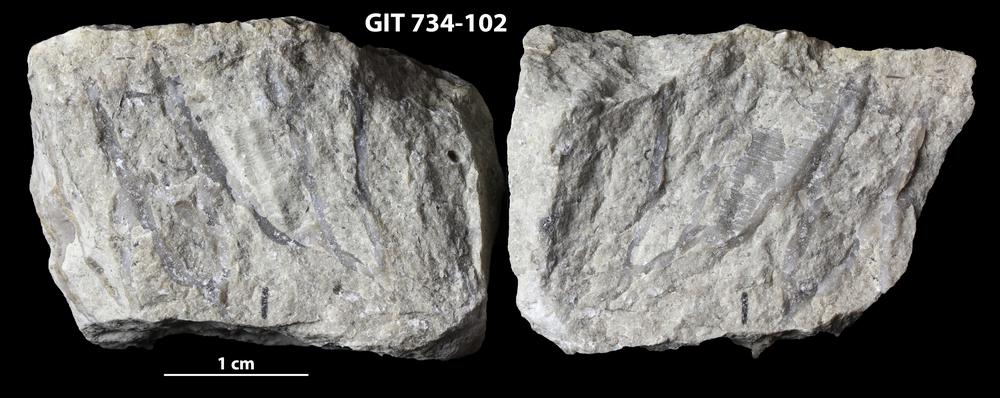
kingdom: Animalia
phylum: Cnidaria
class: Anthozoa
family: Cateniporidae
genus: Catenipora
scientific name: Catenipora
